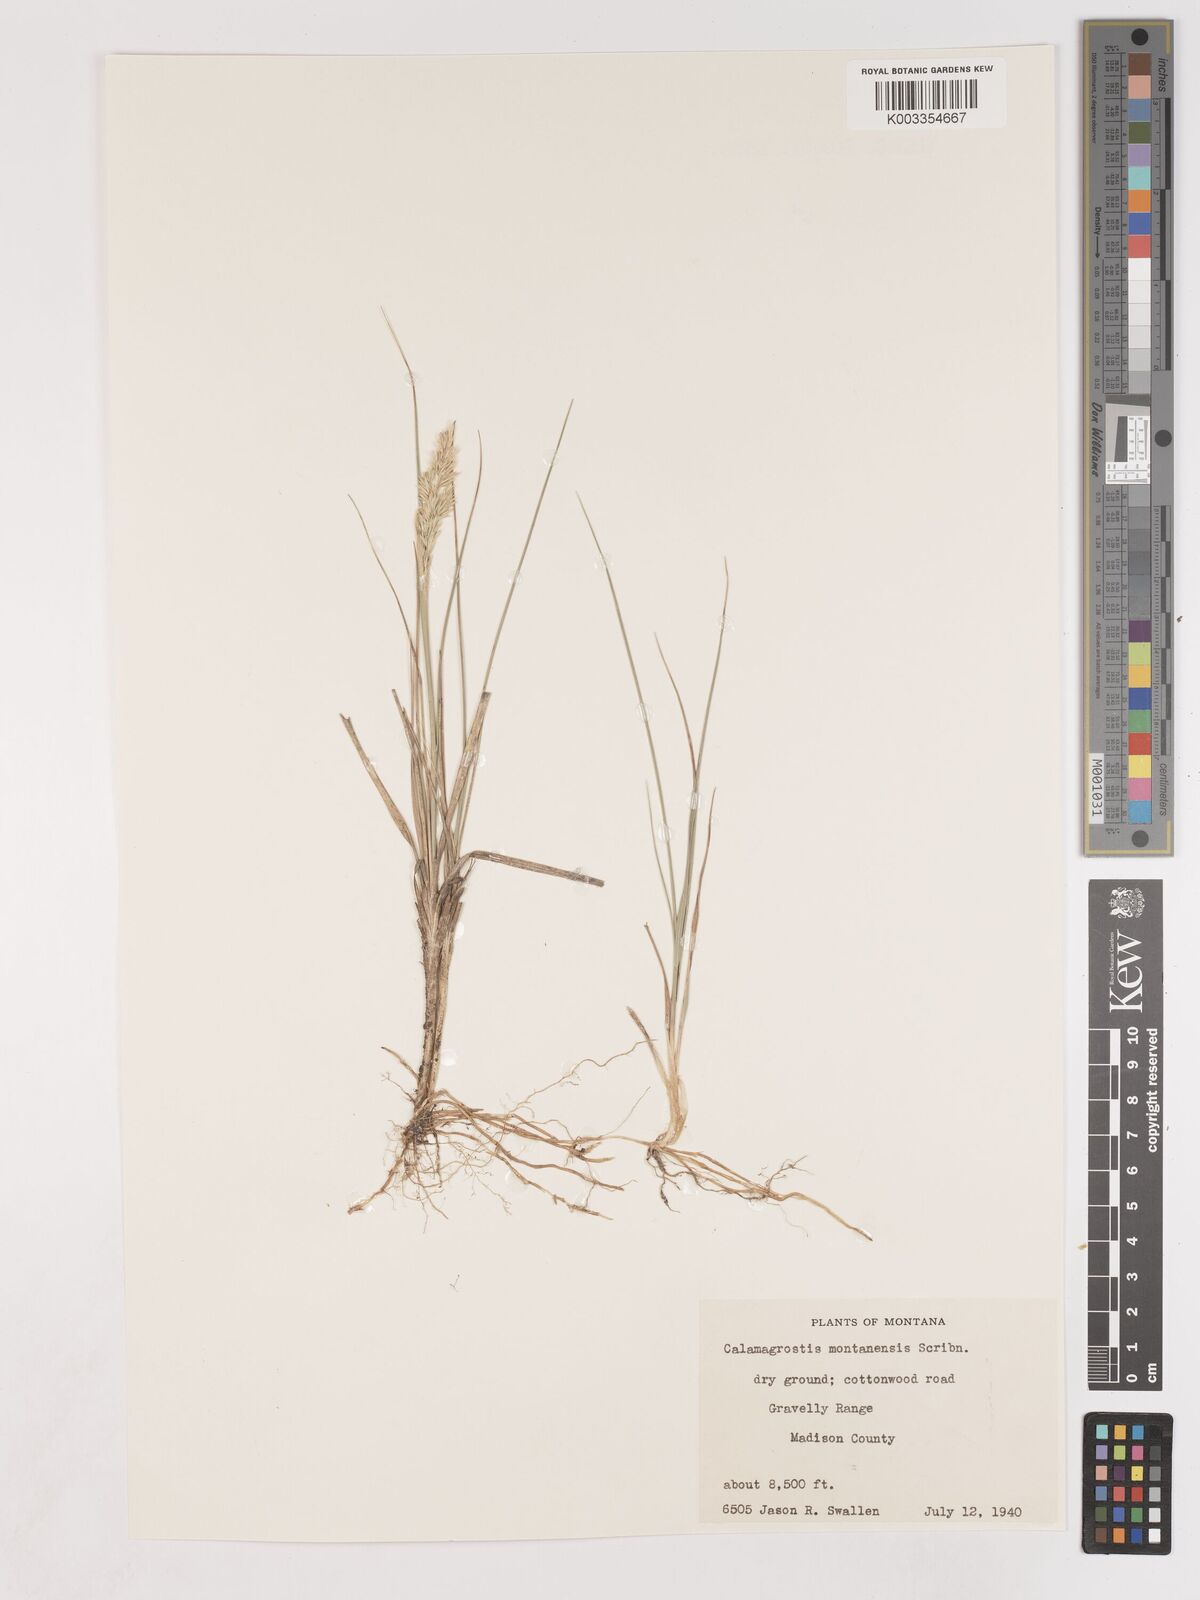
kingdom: Plantae
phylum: Tracheophyta
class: Liliopsida
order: Poales
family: Poaceae
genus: Calamagrostis
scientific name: Calamagrostis montanensis
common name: Plains reedgrass
